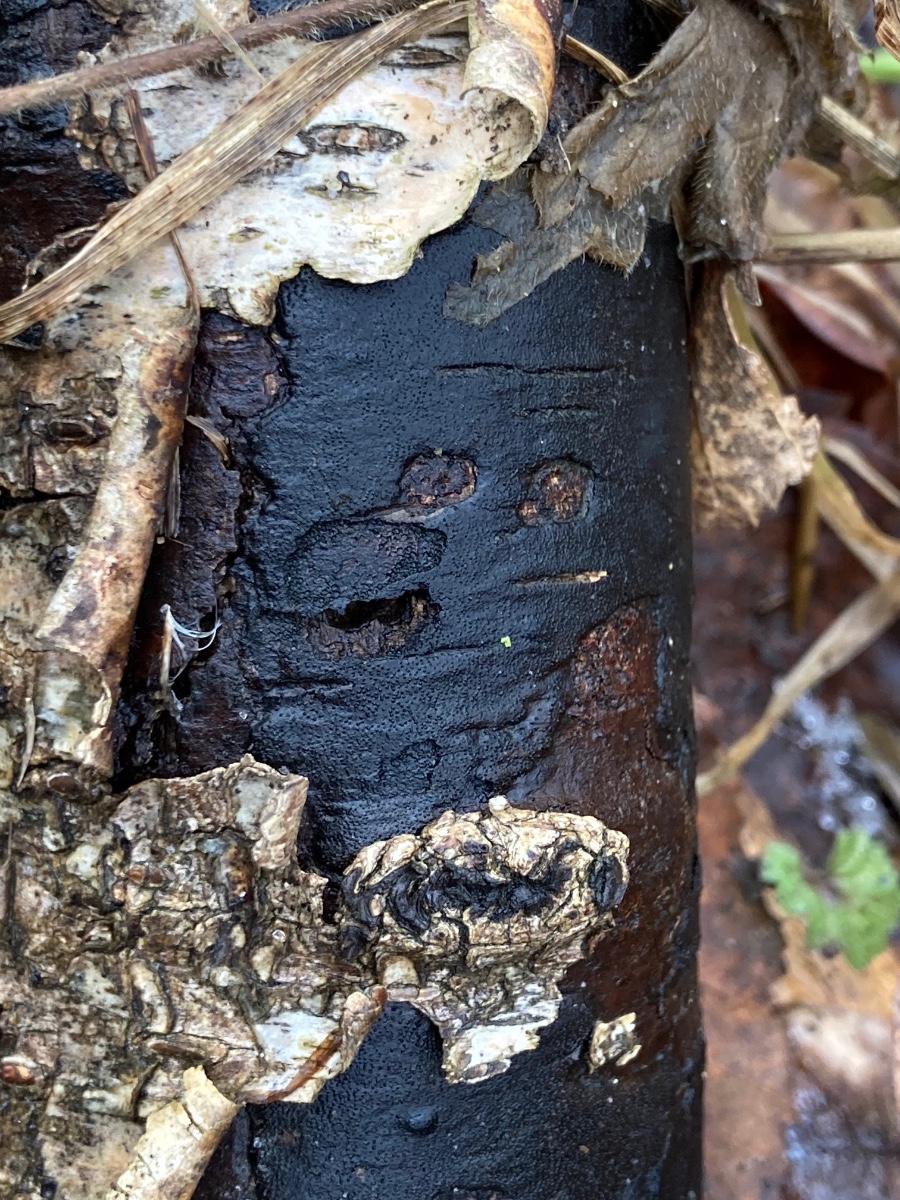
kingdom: Fungi
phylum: Ascomycota
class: Sordariomycetes
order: Xylariales
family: Diatrypaceae
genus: Diatrype
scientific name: Diatrype
